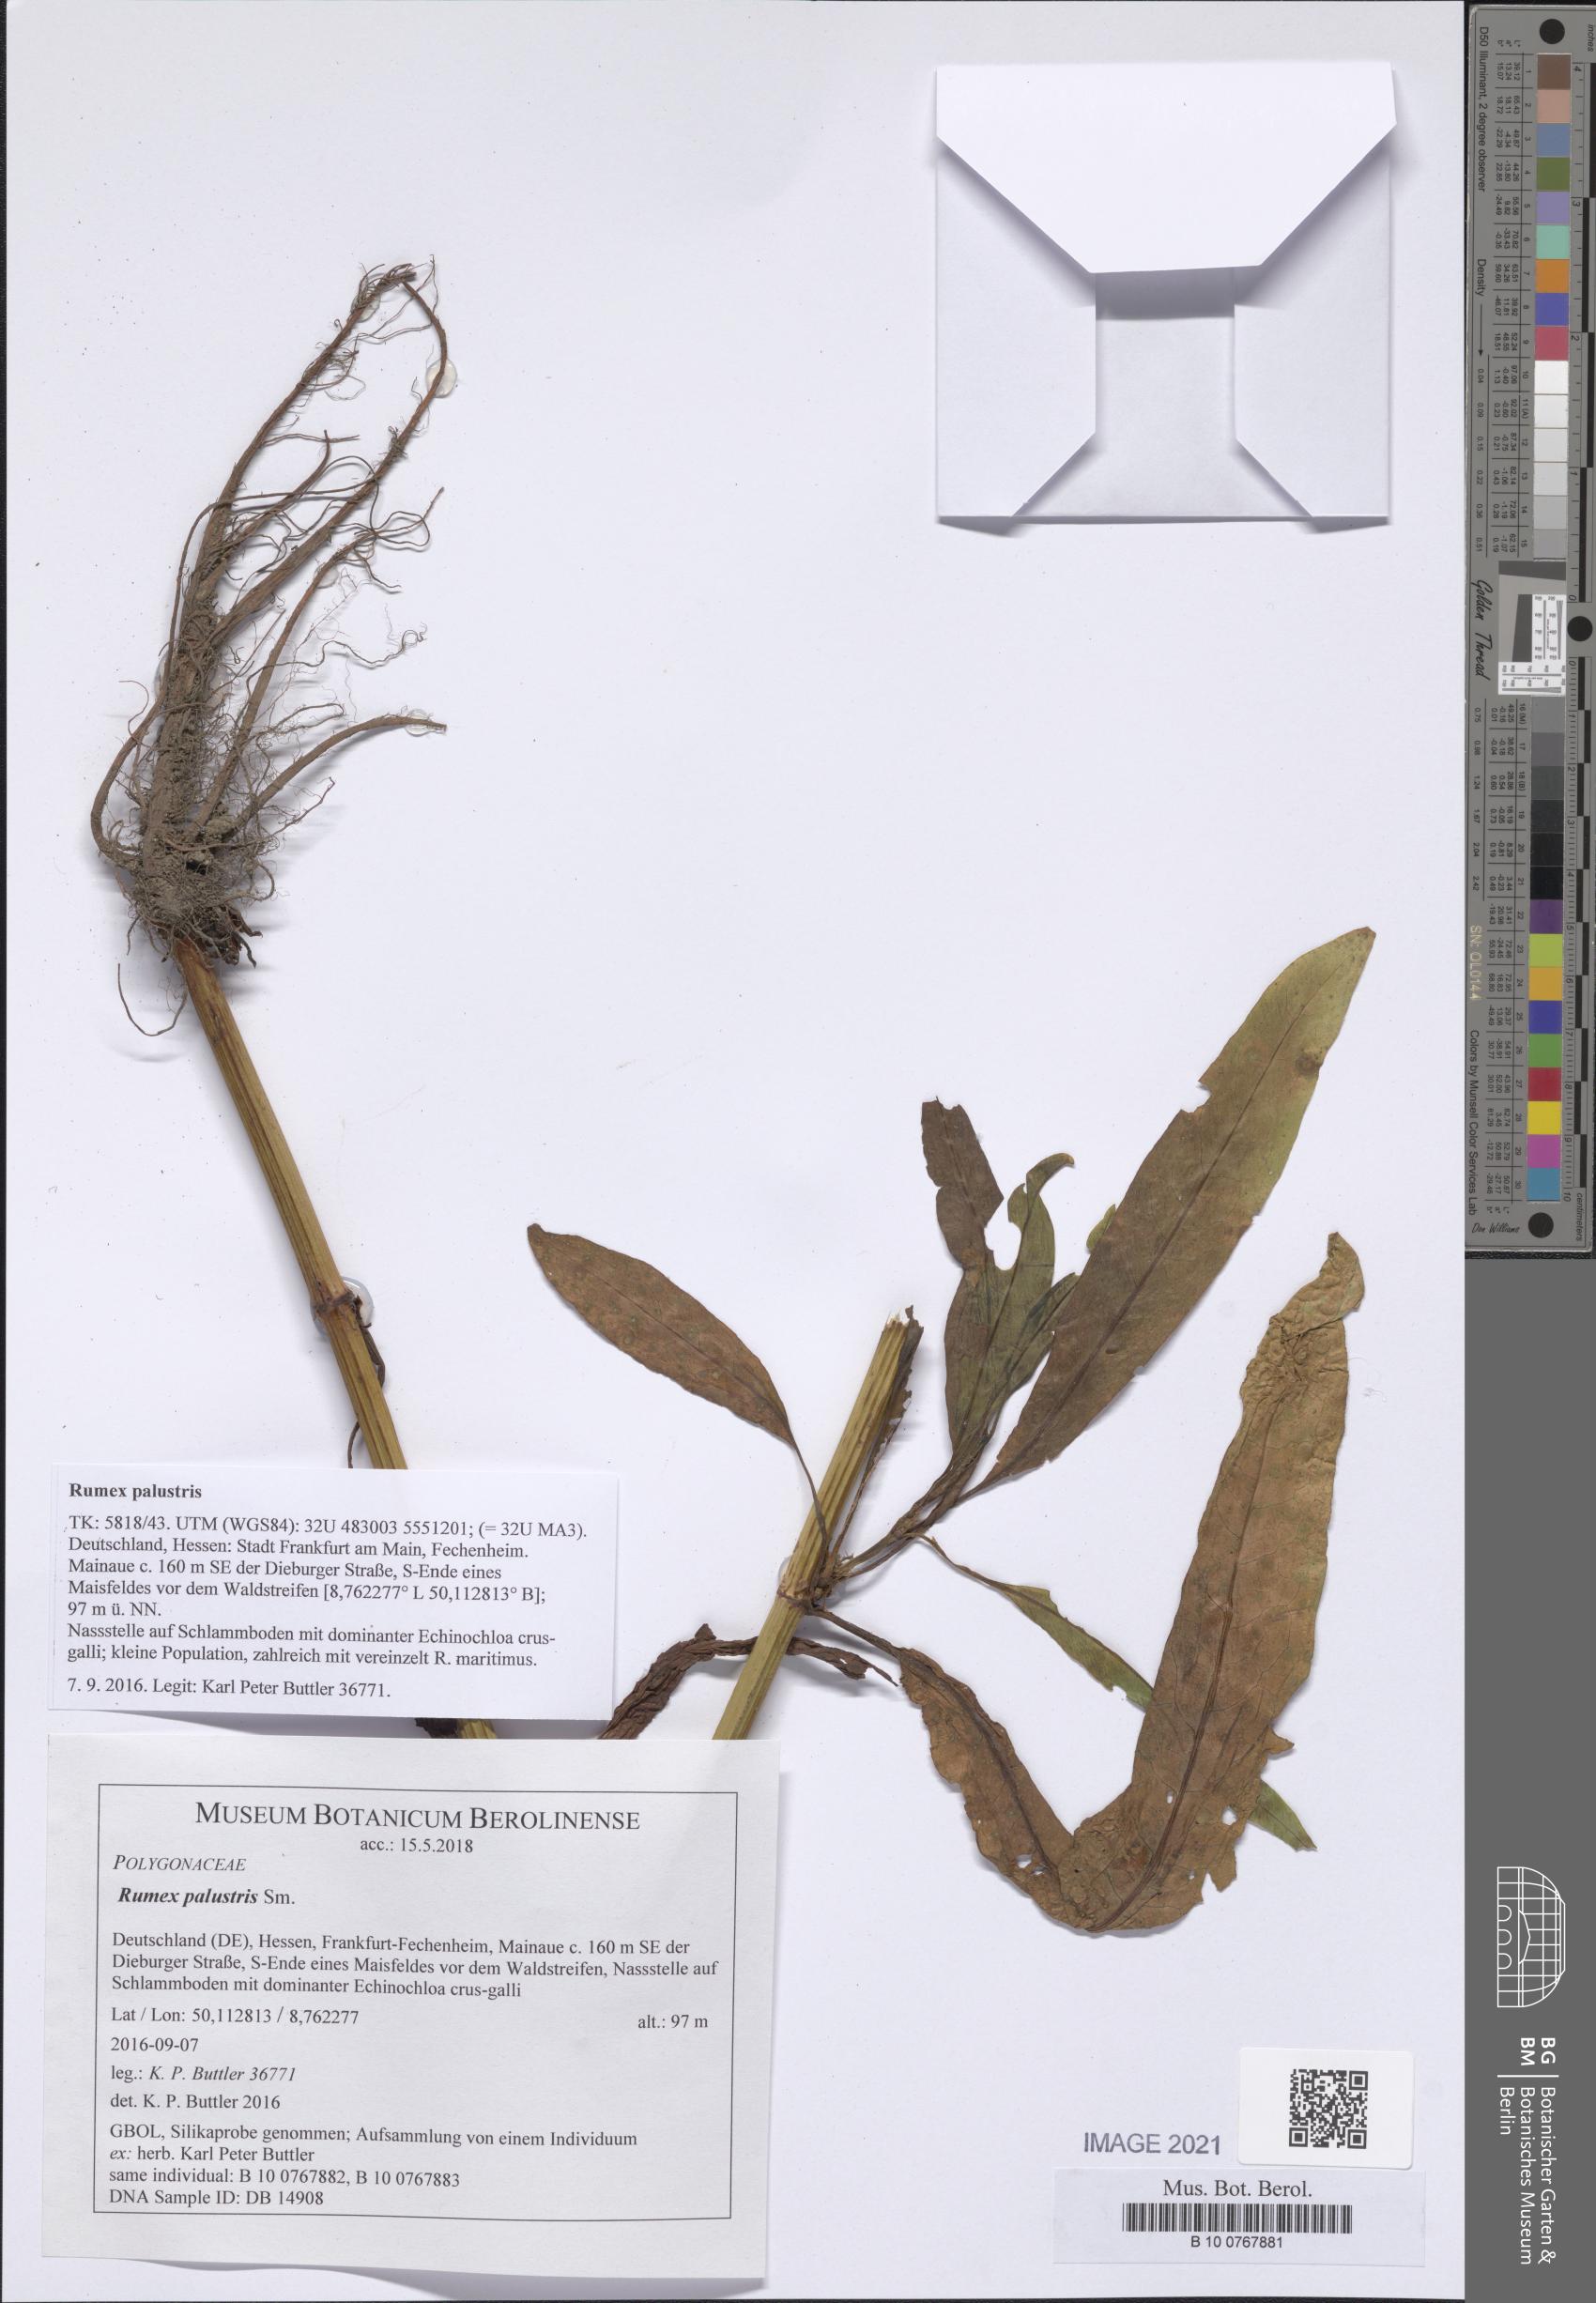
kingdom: Plantae
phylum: Tracheophyta
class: Magnoliopsida
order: Caryophyllales
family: Polygonaceae
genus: Rumex
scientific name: Rumex palustris
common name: Marsh dock
